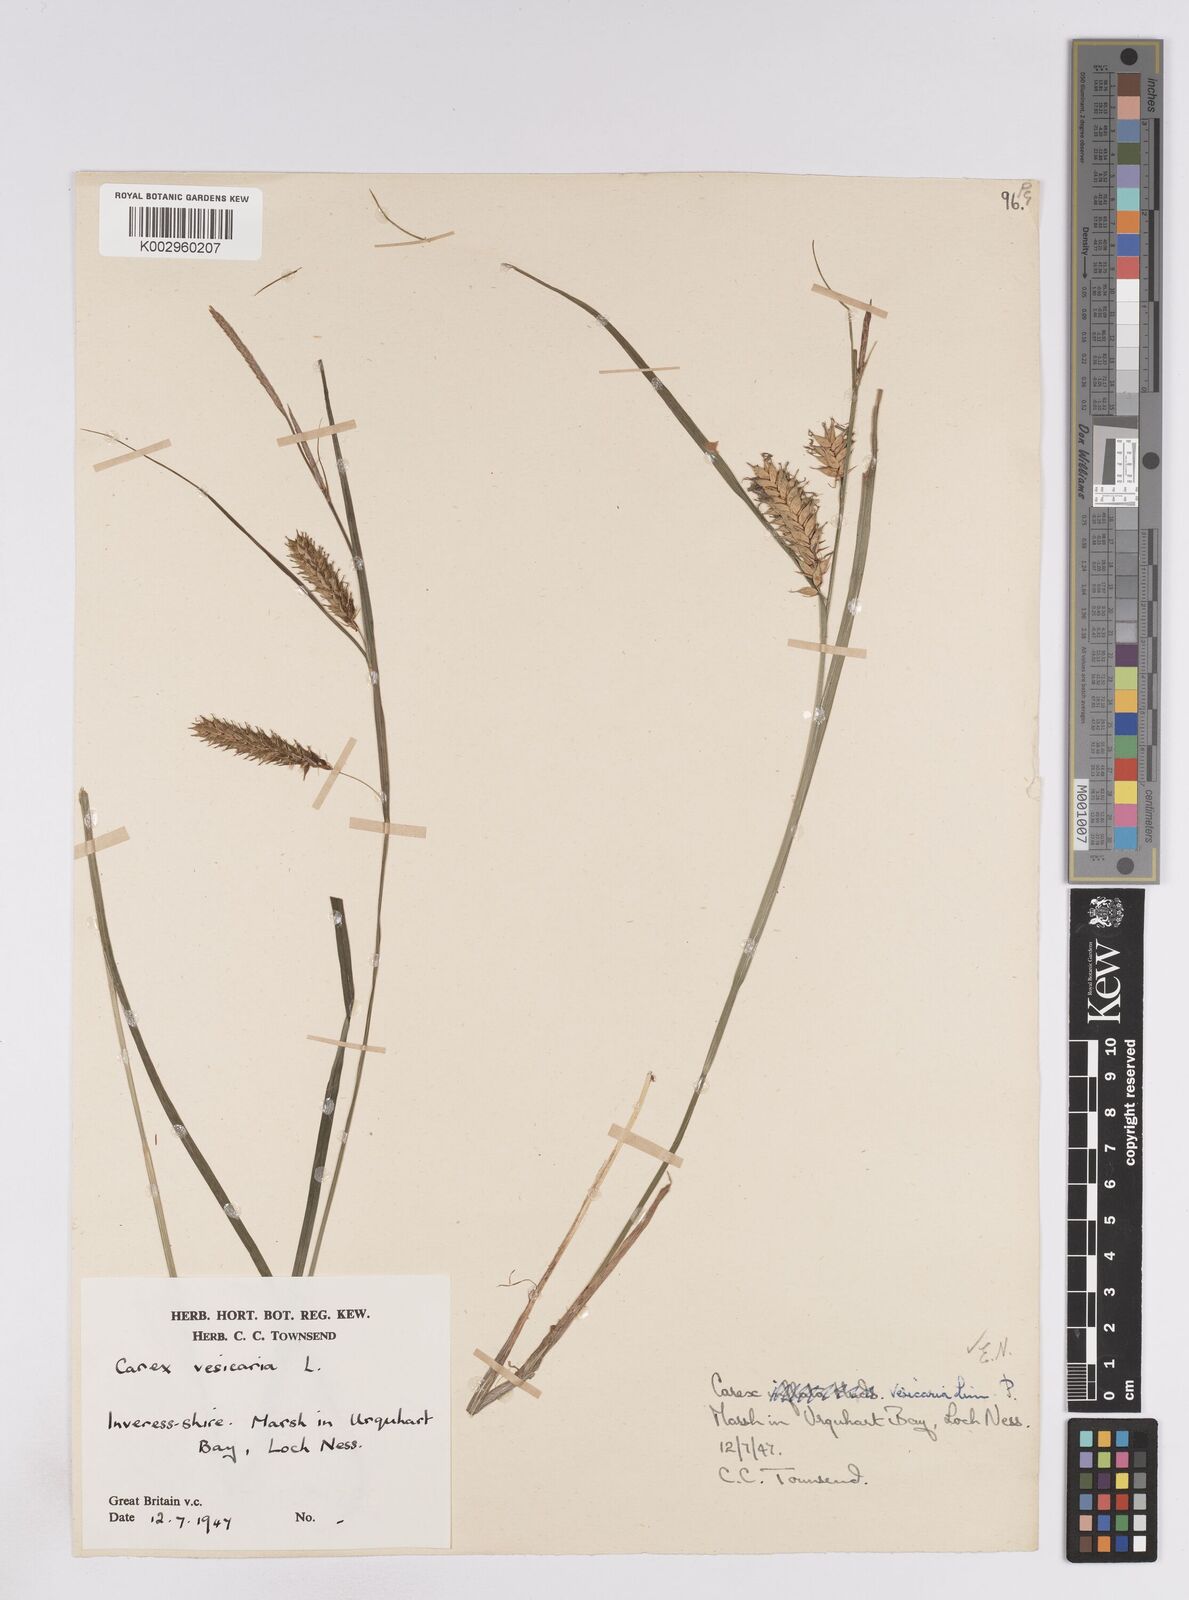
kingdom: Plantae
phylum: Tracheophyta
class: Liliopsida
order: Poales
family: Cyperaceae
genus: Carex
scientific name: Carex vesicaria
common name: Bladder-sedge
